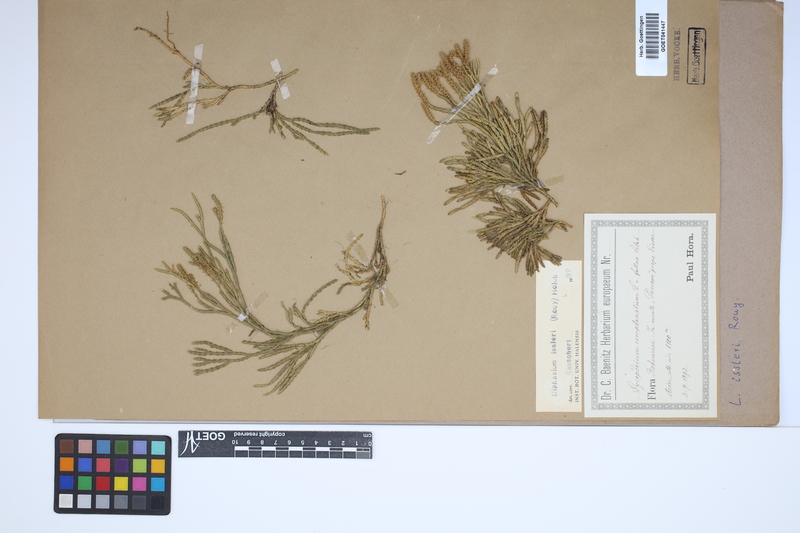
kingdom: Plantae
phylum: Tracheophyta
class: Lycopodiopsida
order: Lycopodiales
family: Lycopodiaceae
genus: Diphasiastrum
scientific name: Diphasiastrum issleri
